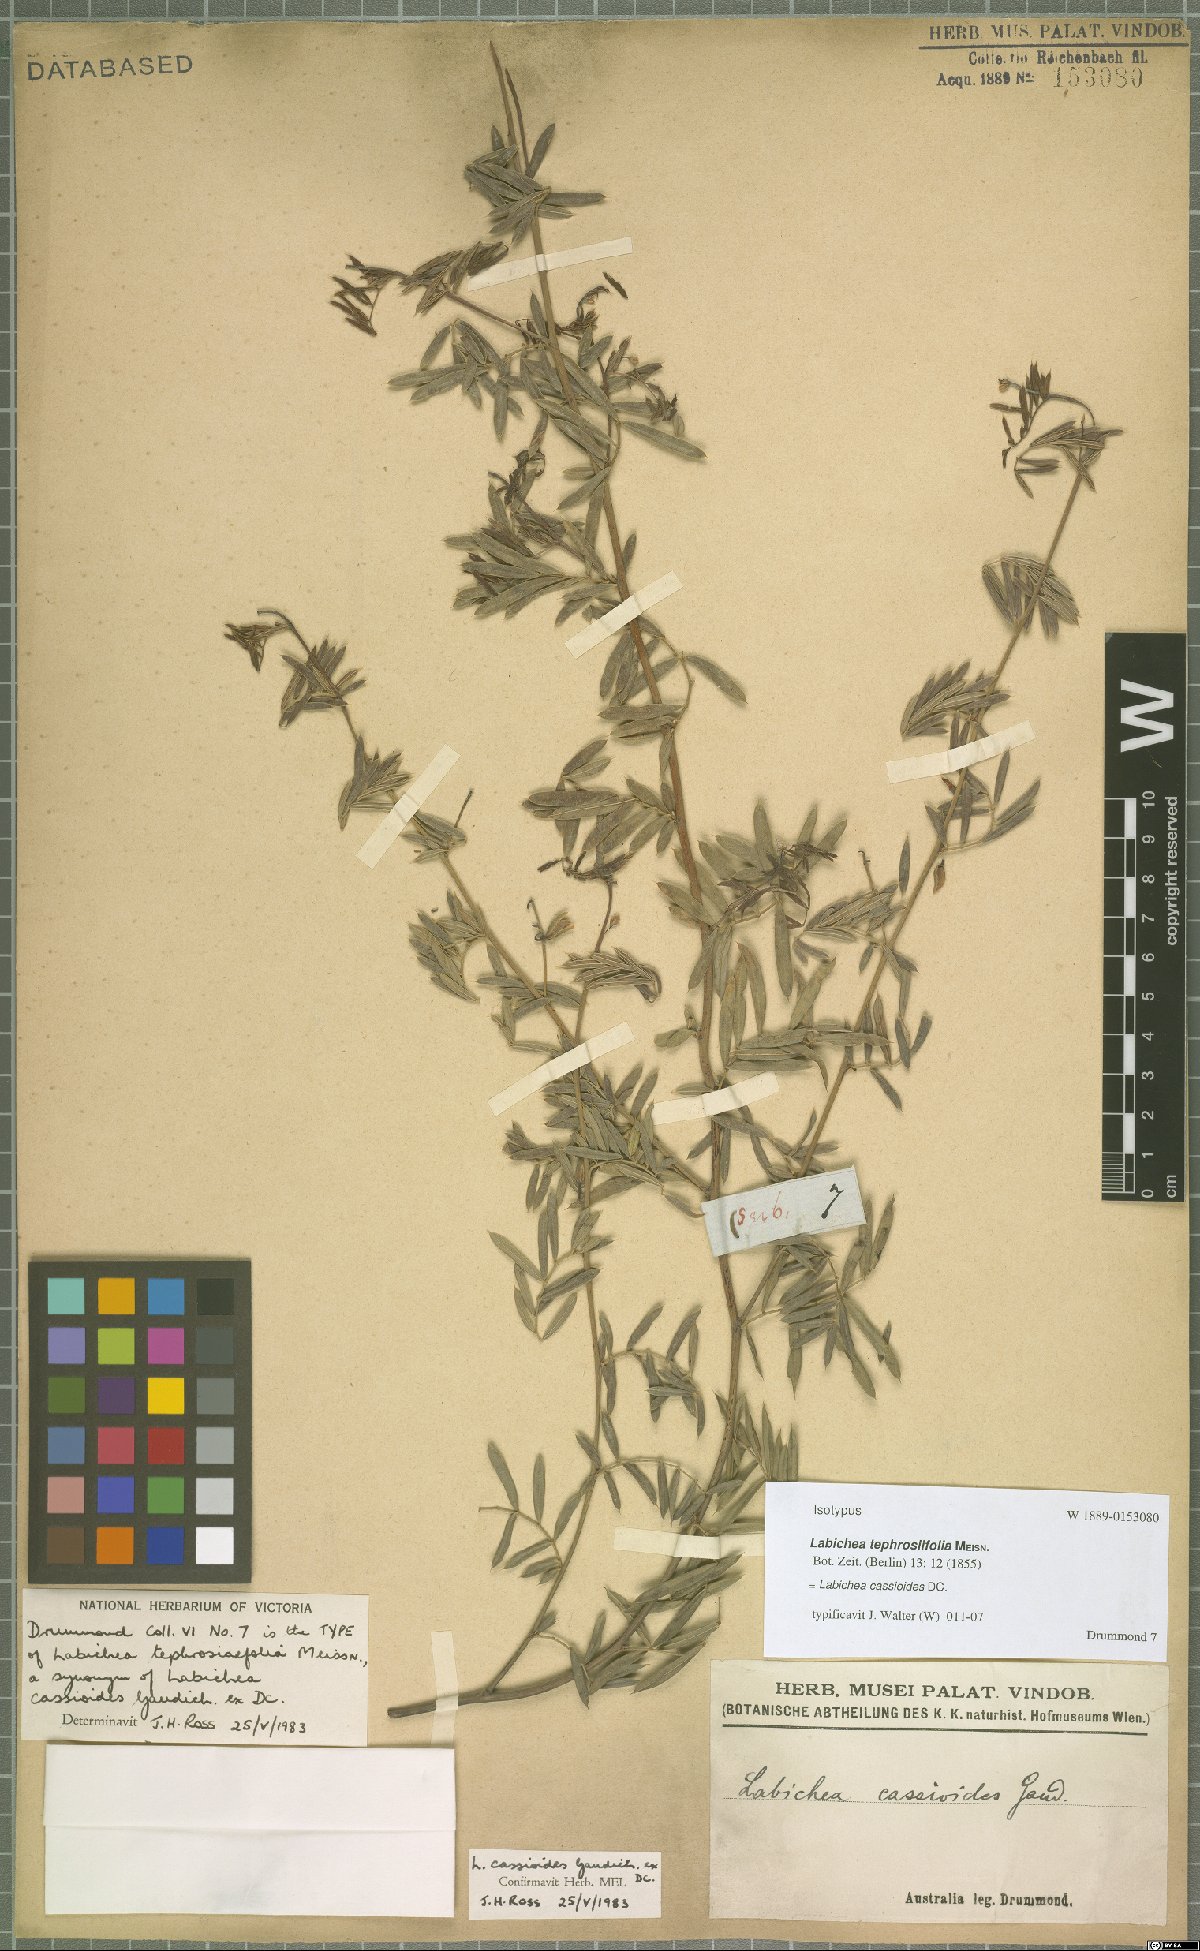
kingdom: Plantae
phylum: Tracheophyta
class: Magnoliopsida
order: Fabales
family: Fabaceae
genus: Labichea
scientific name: Labichea cassioides
